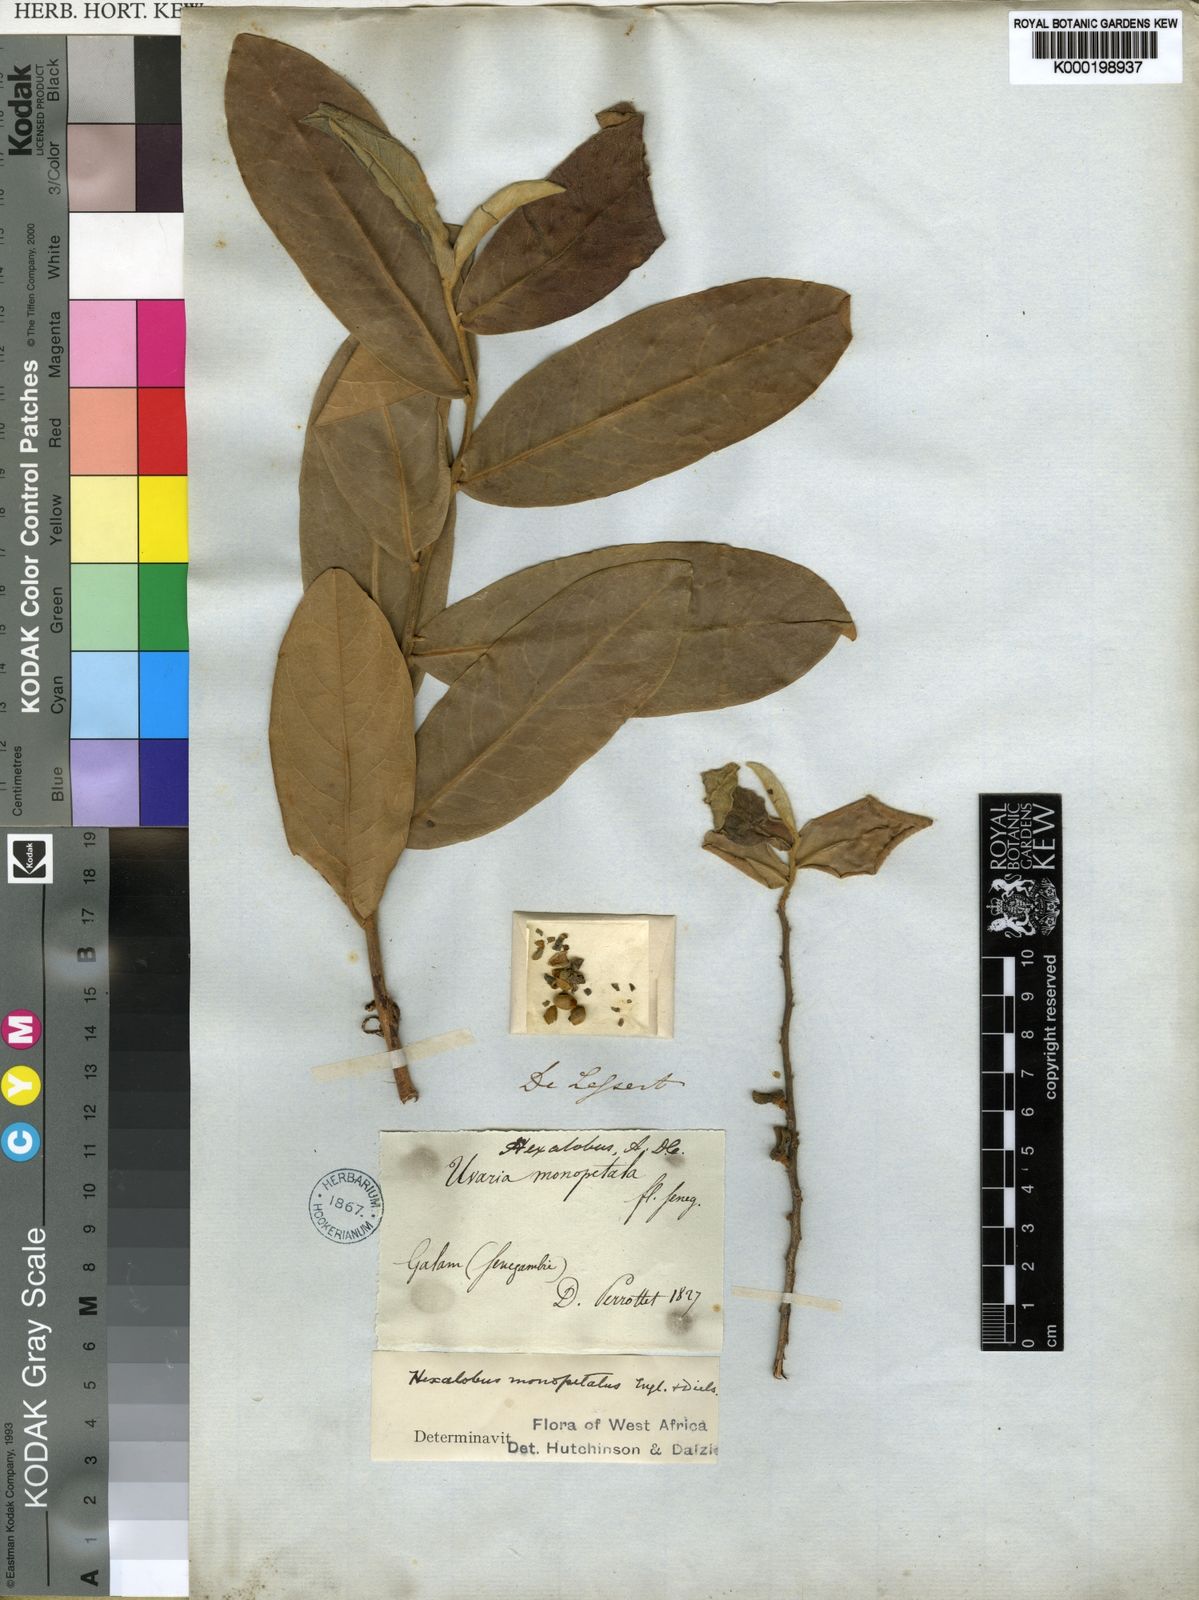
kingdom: Plantae
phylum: Tracheophyta
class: Magnoliopsida
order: Magnoliales
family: Annonaceae
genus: Hexalobus
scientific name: Hexalobus monopetalus
